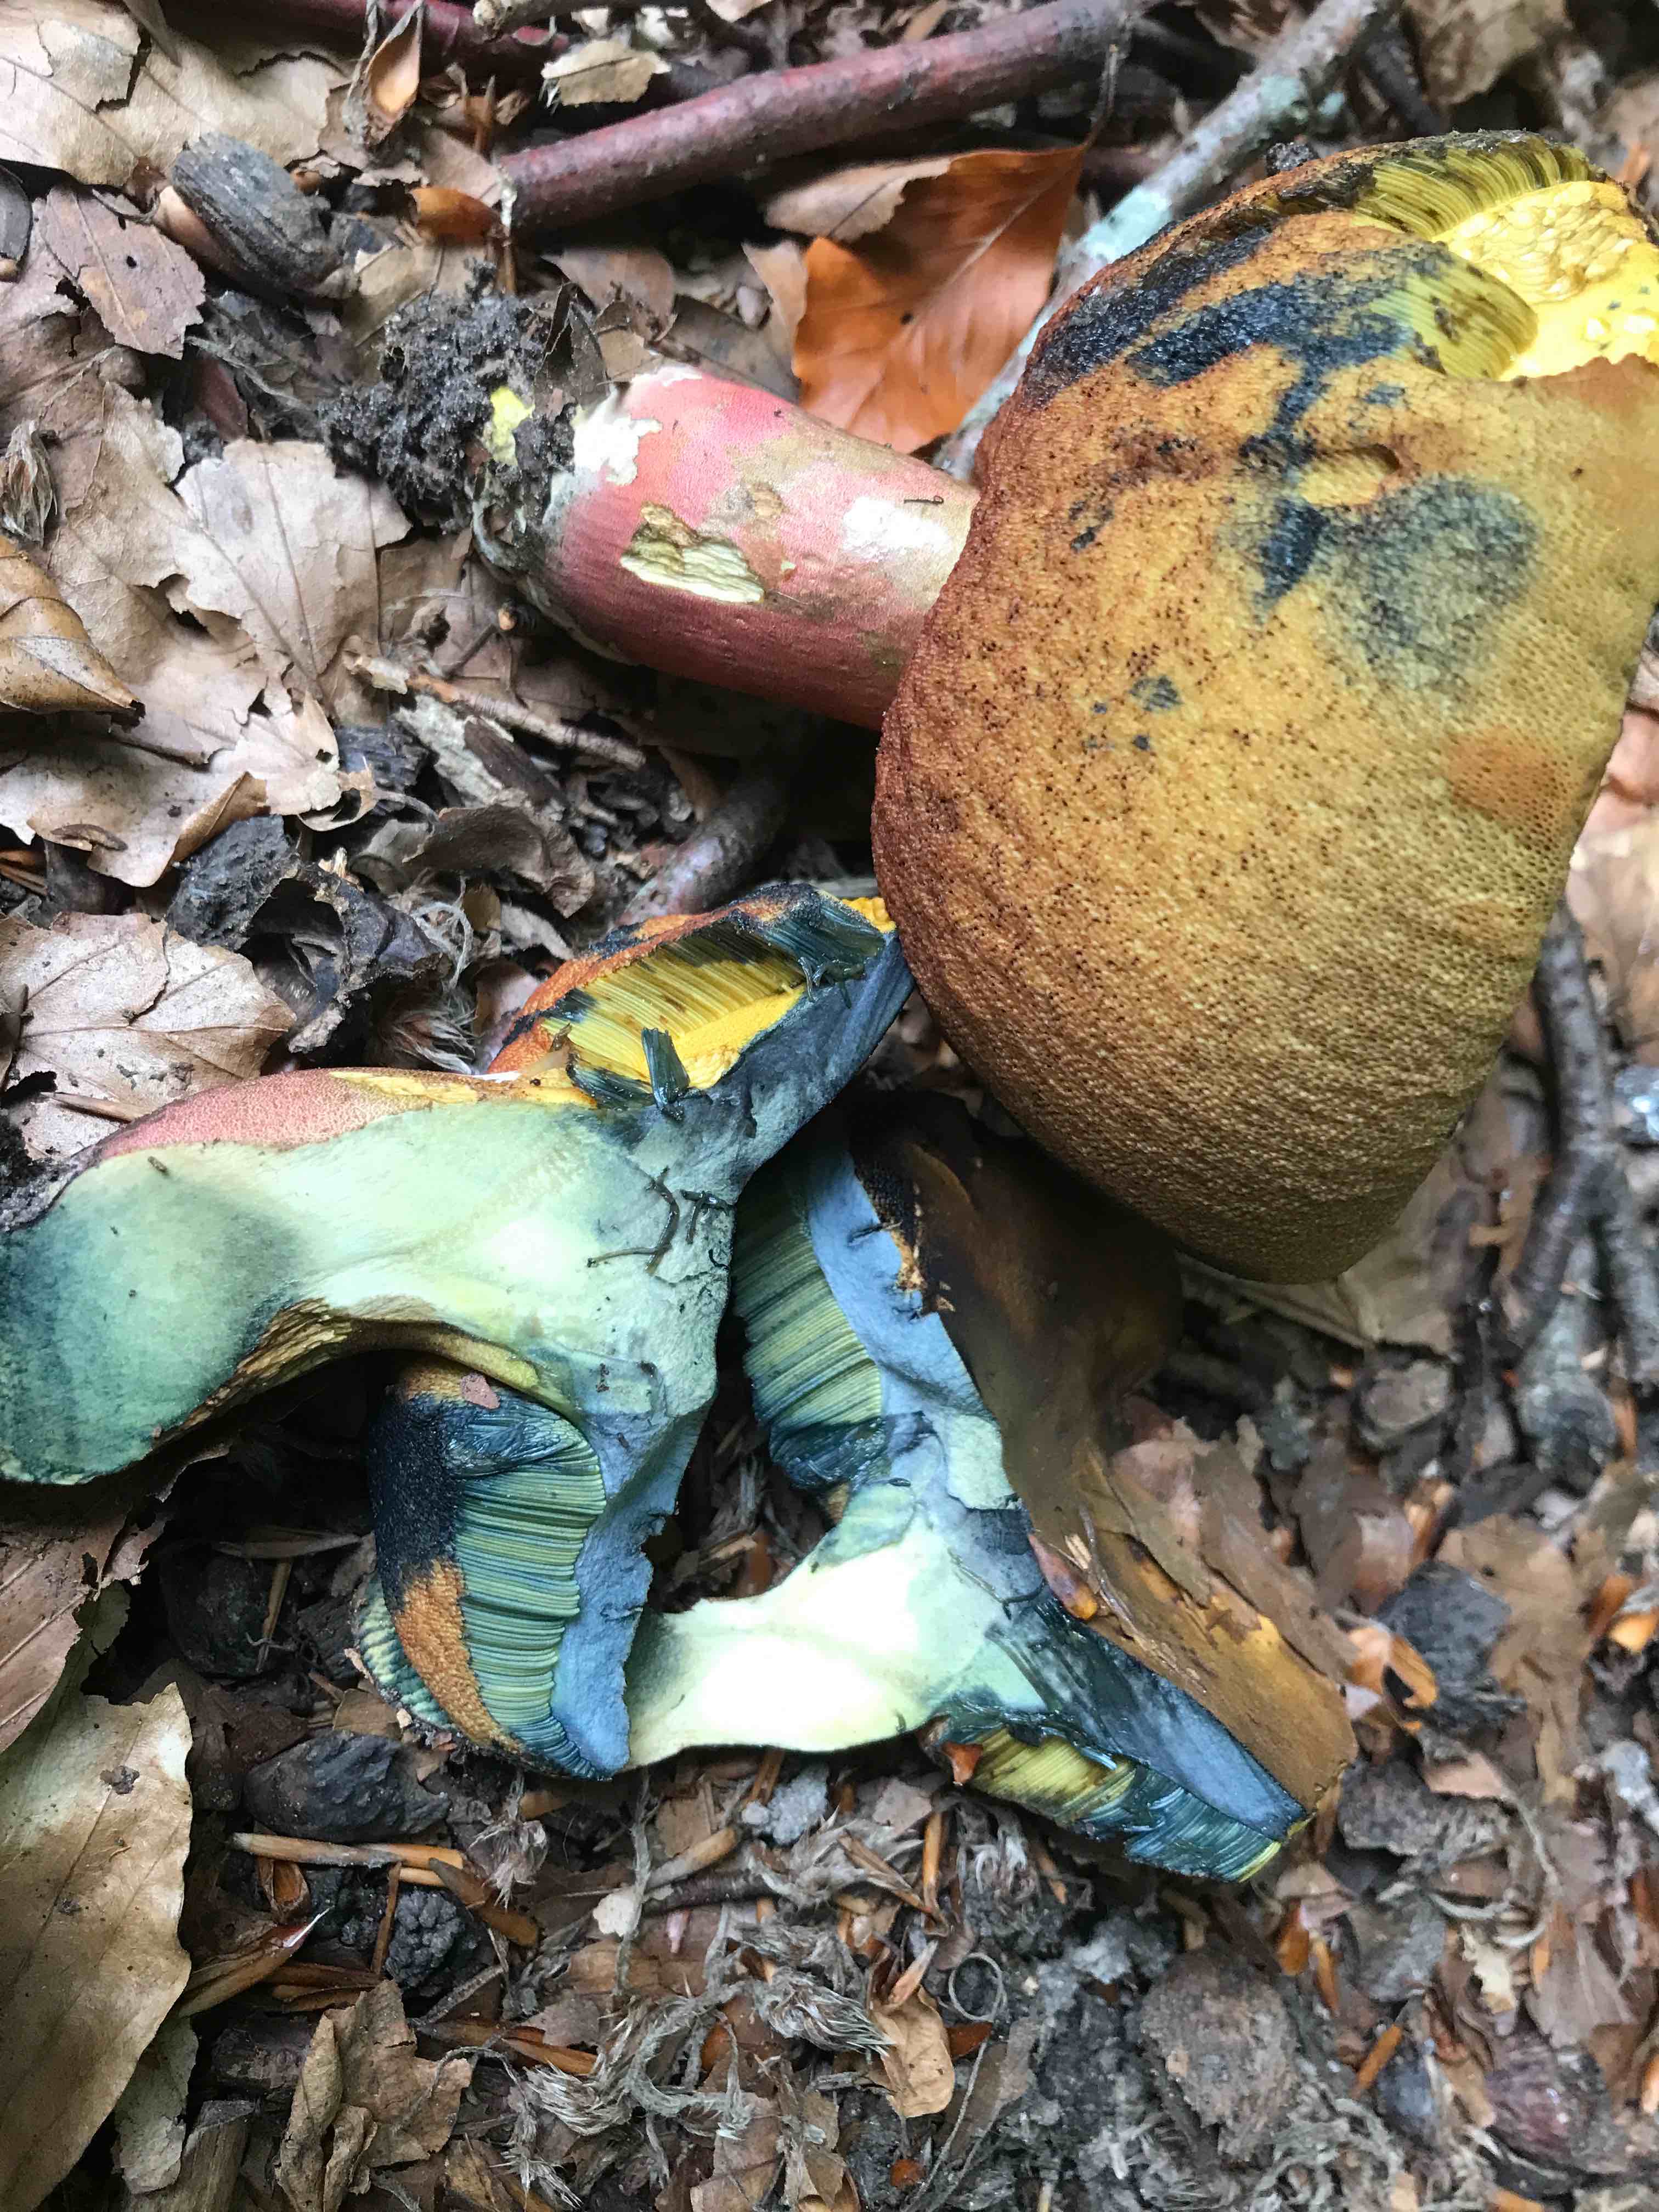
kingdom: Fungi
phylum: Basidiomycota
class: Agaricomycetes
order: Boletales
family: Boletaceae
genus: Neoboletus
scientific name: Neoboletus erythropus
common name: punktstokket indigorørhat
